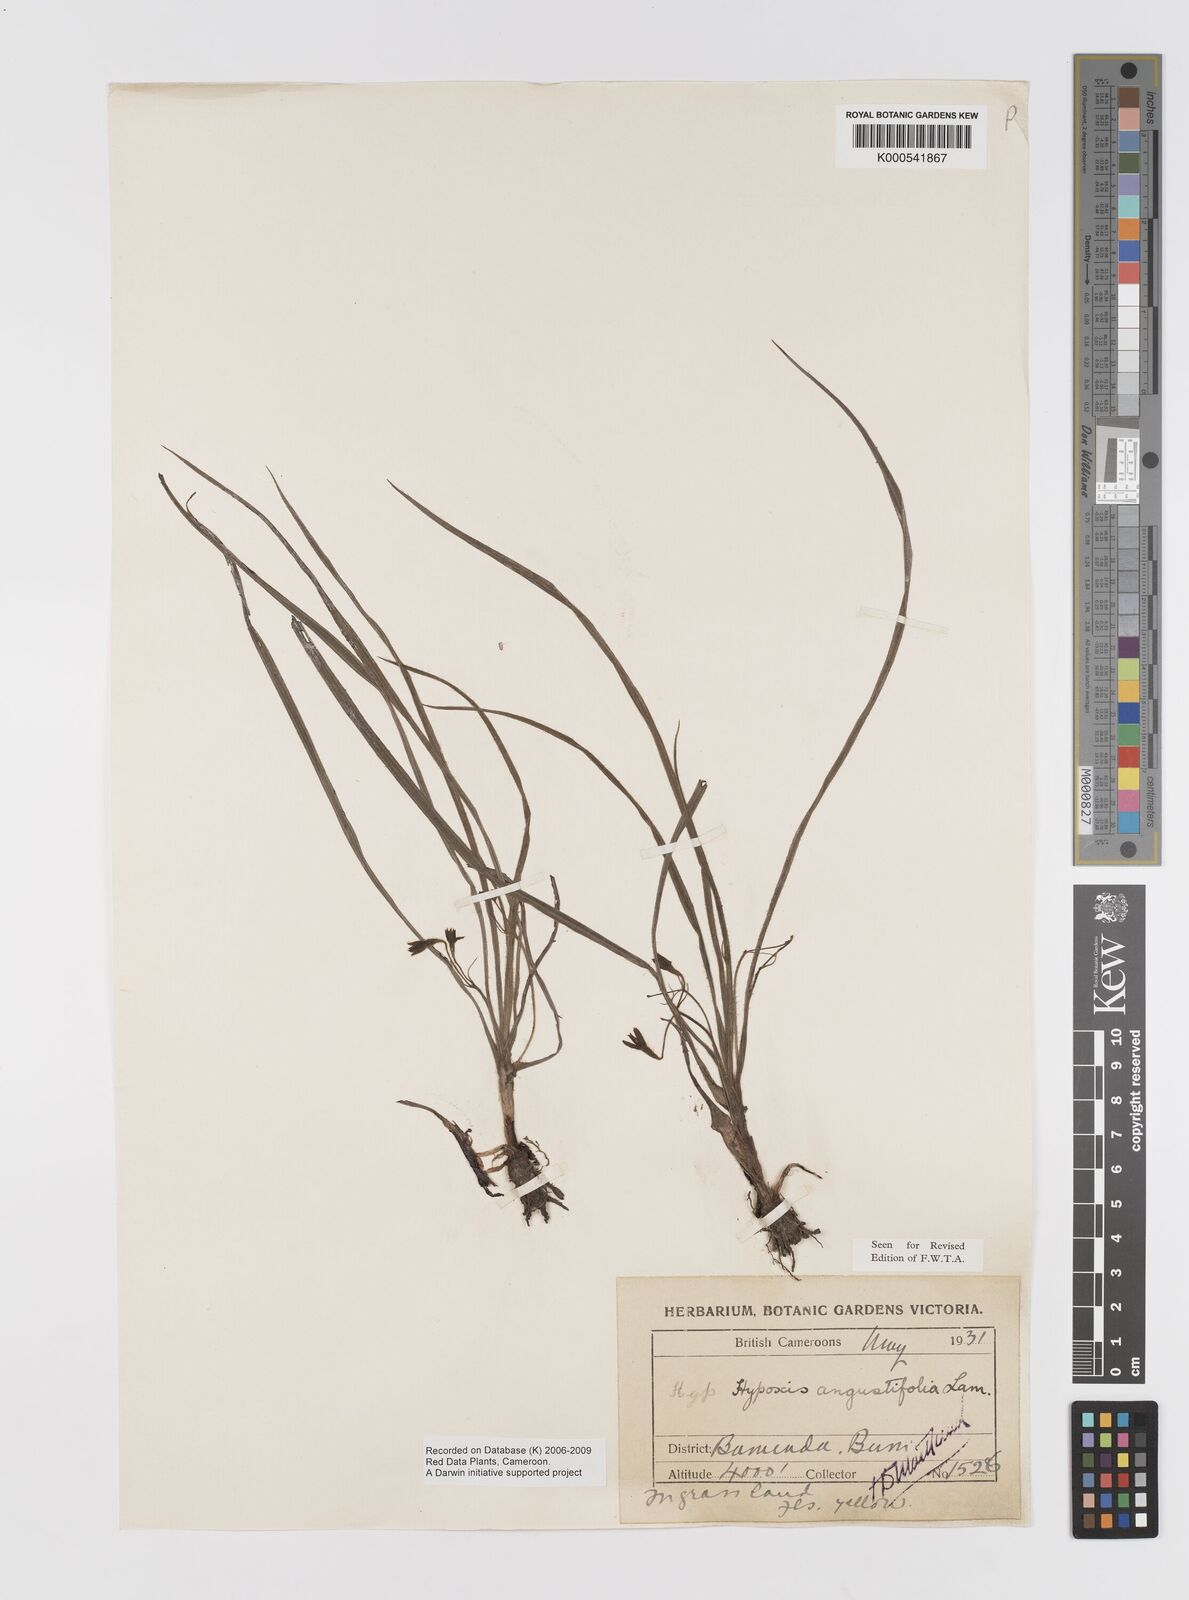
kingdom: Plantae
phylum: Tracheophyta
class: Liliopsida
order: Asparagales
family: Hypoxidaceae
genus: Hypoxis
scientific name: Hypoxis camerooniana
